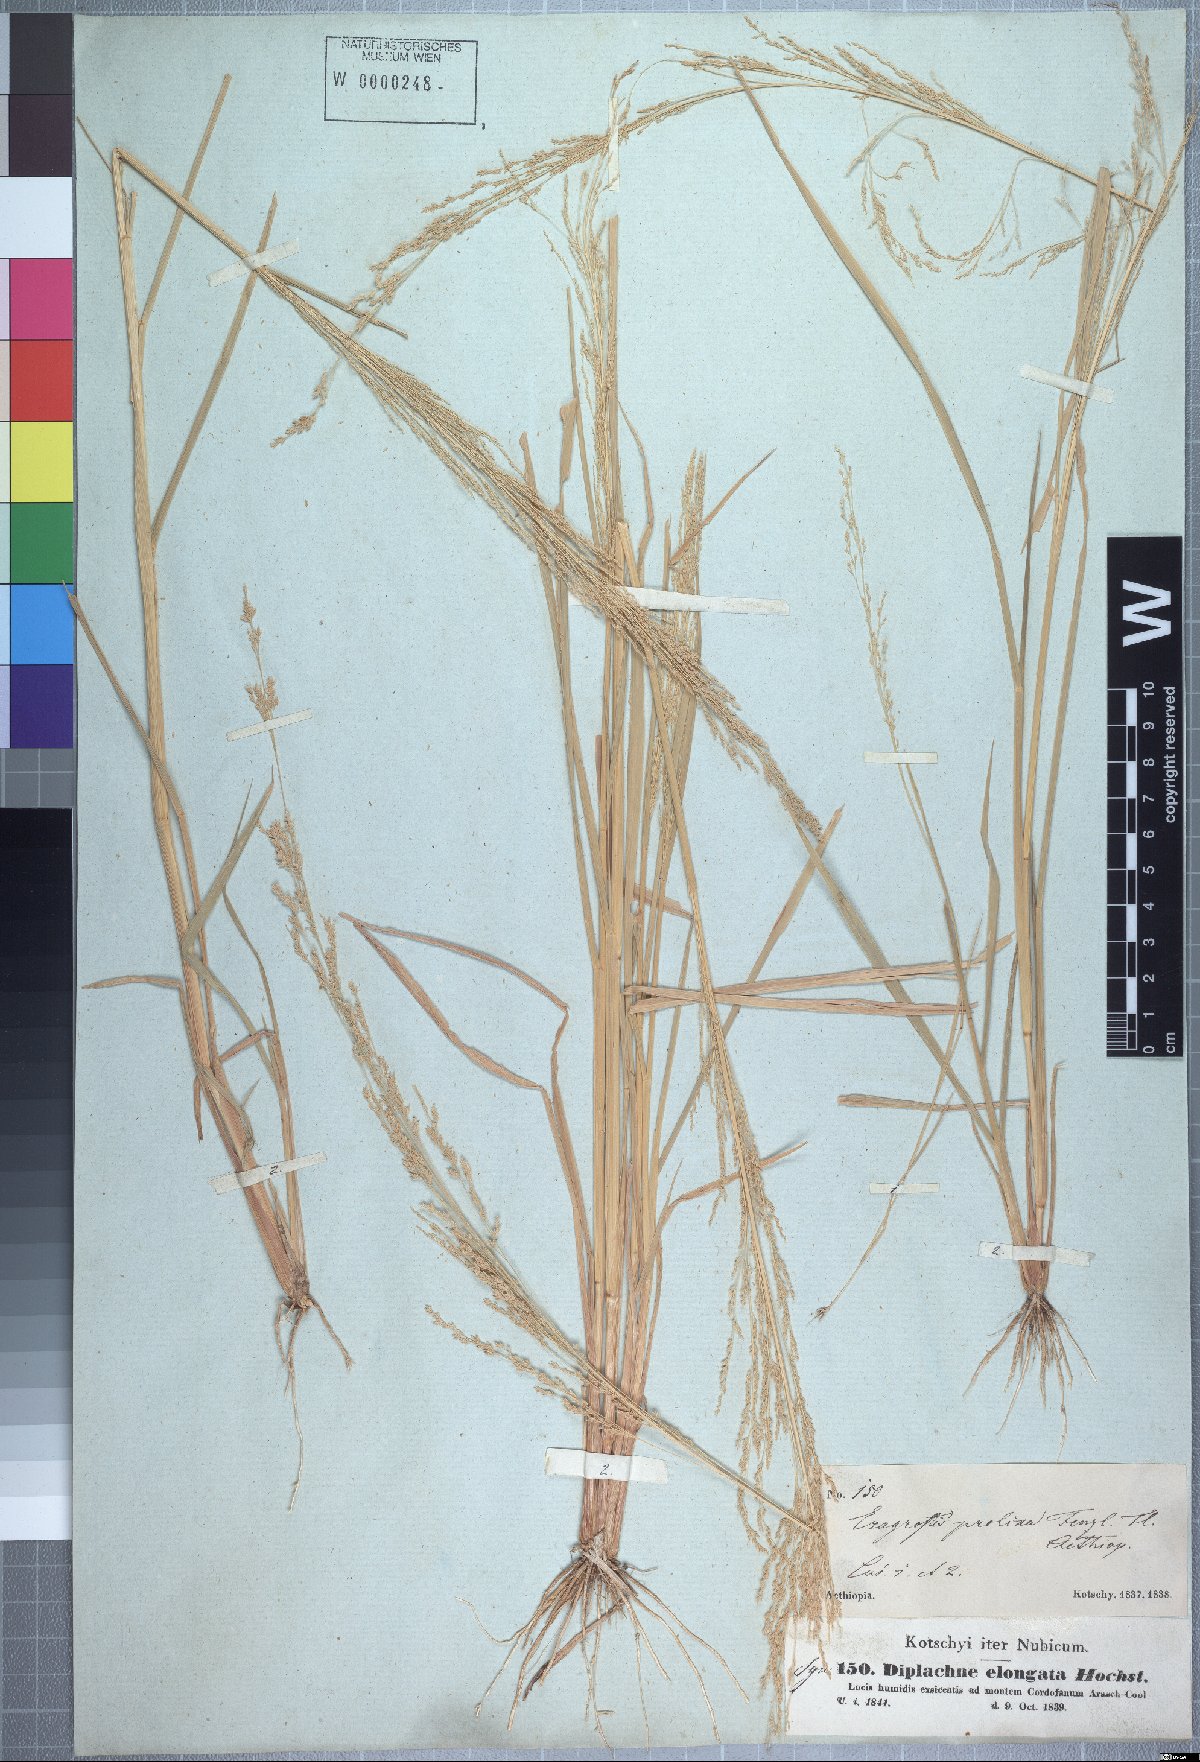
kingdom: Plantae
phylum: Tracheophyta
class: Liliopsida
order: Poales
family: Poaceae
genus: Eragrostis
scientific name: Eragrostis japonica
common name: Pond lovegrass
